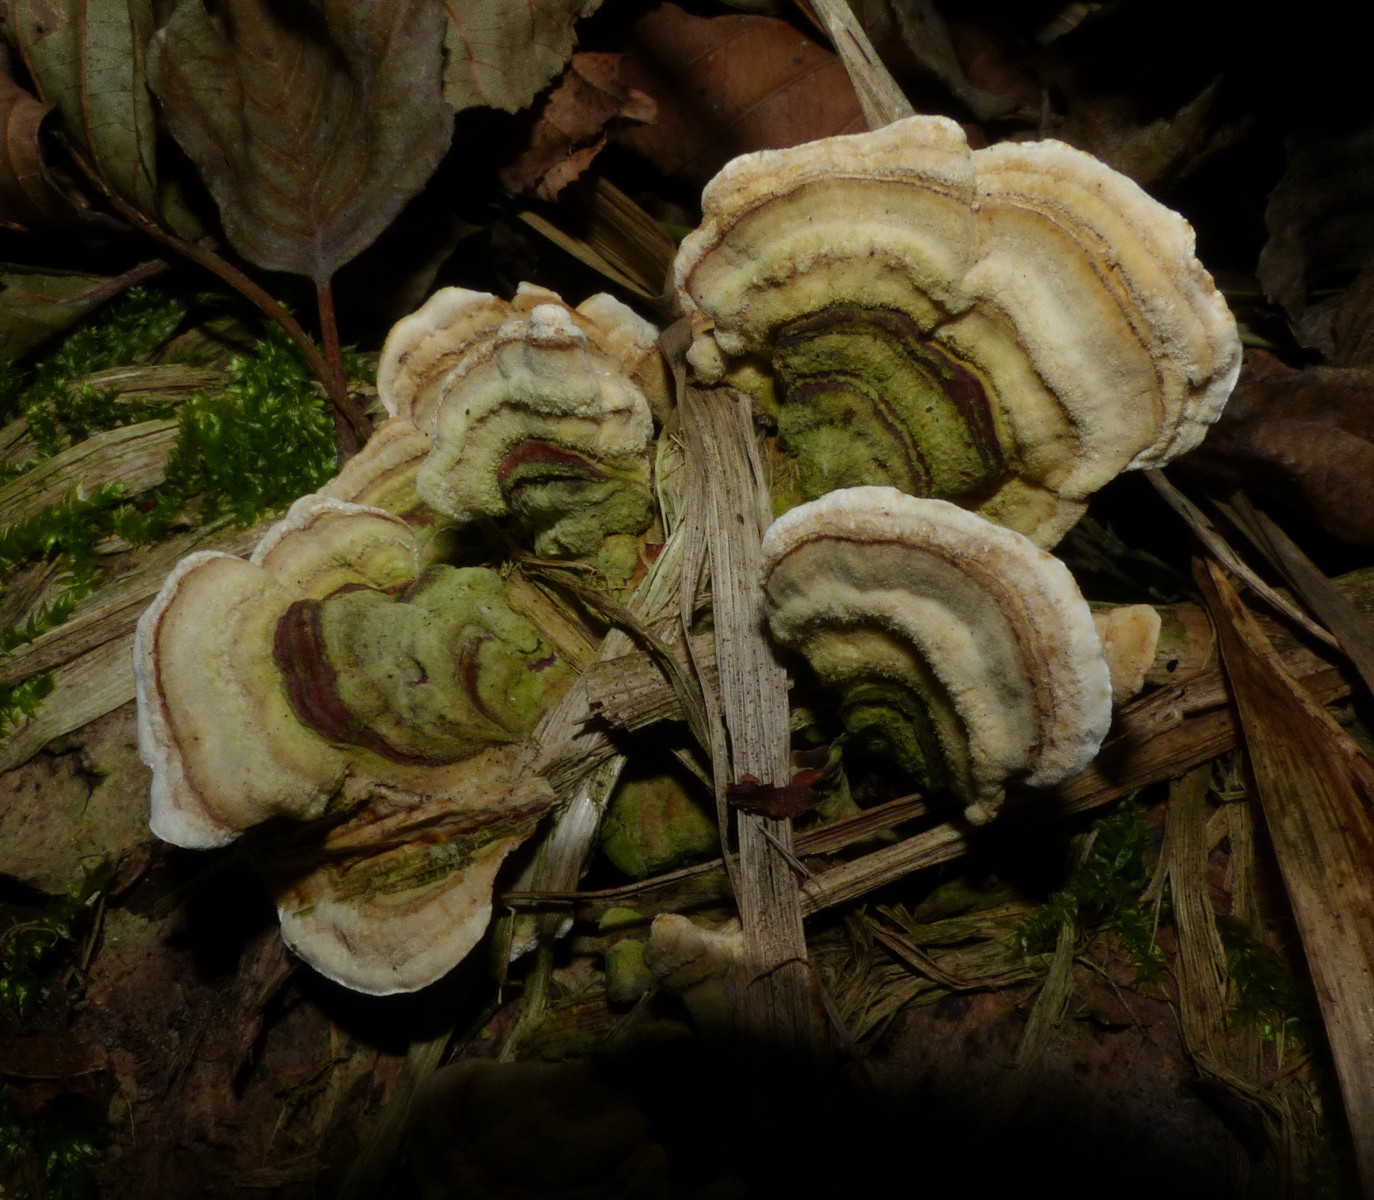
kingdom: Fungi
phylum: Basidiomycota
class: Agaricomycetes
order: Russulales
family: Stereaceae
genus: Stereum
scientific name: Stereum subtomentosum
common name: smuk lædersvamp
